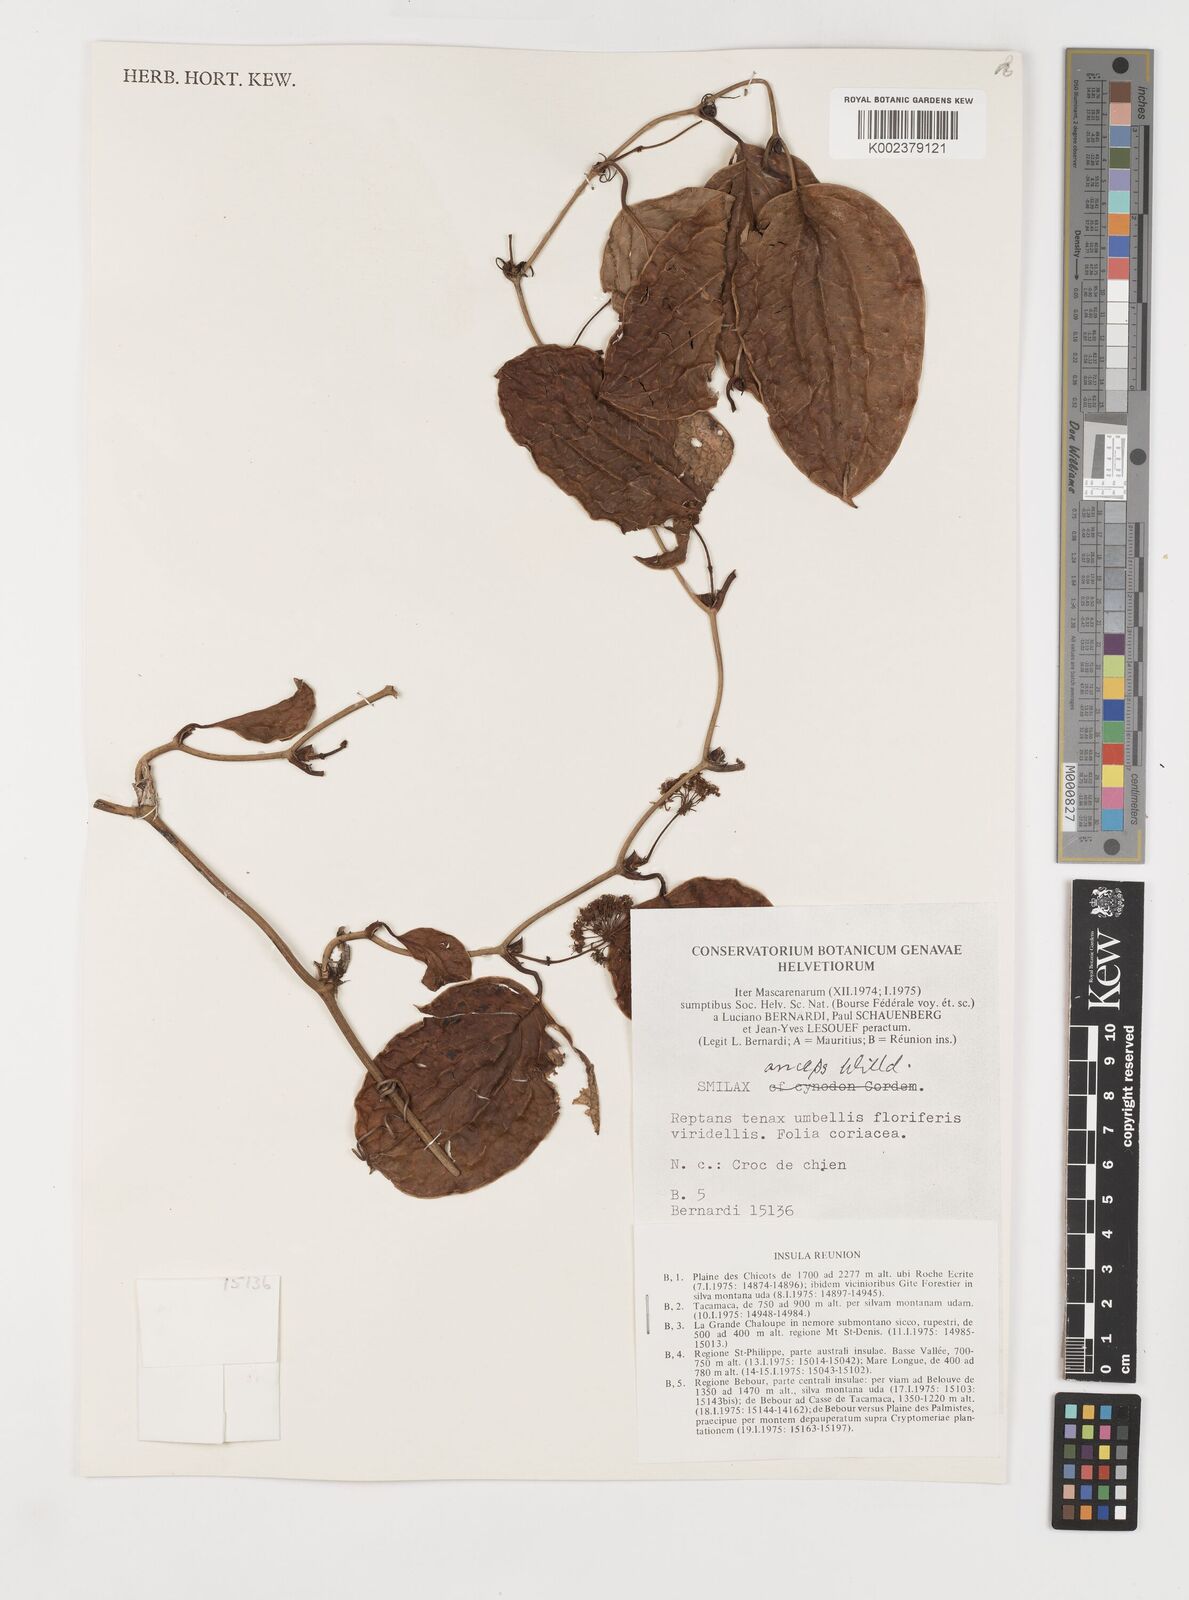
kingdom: Plantae
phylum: Tracheophyta
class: Liliopsida
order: Liliales
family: Smilacaceae
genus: Smilax
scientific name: Smilax anceps
